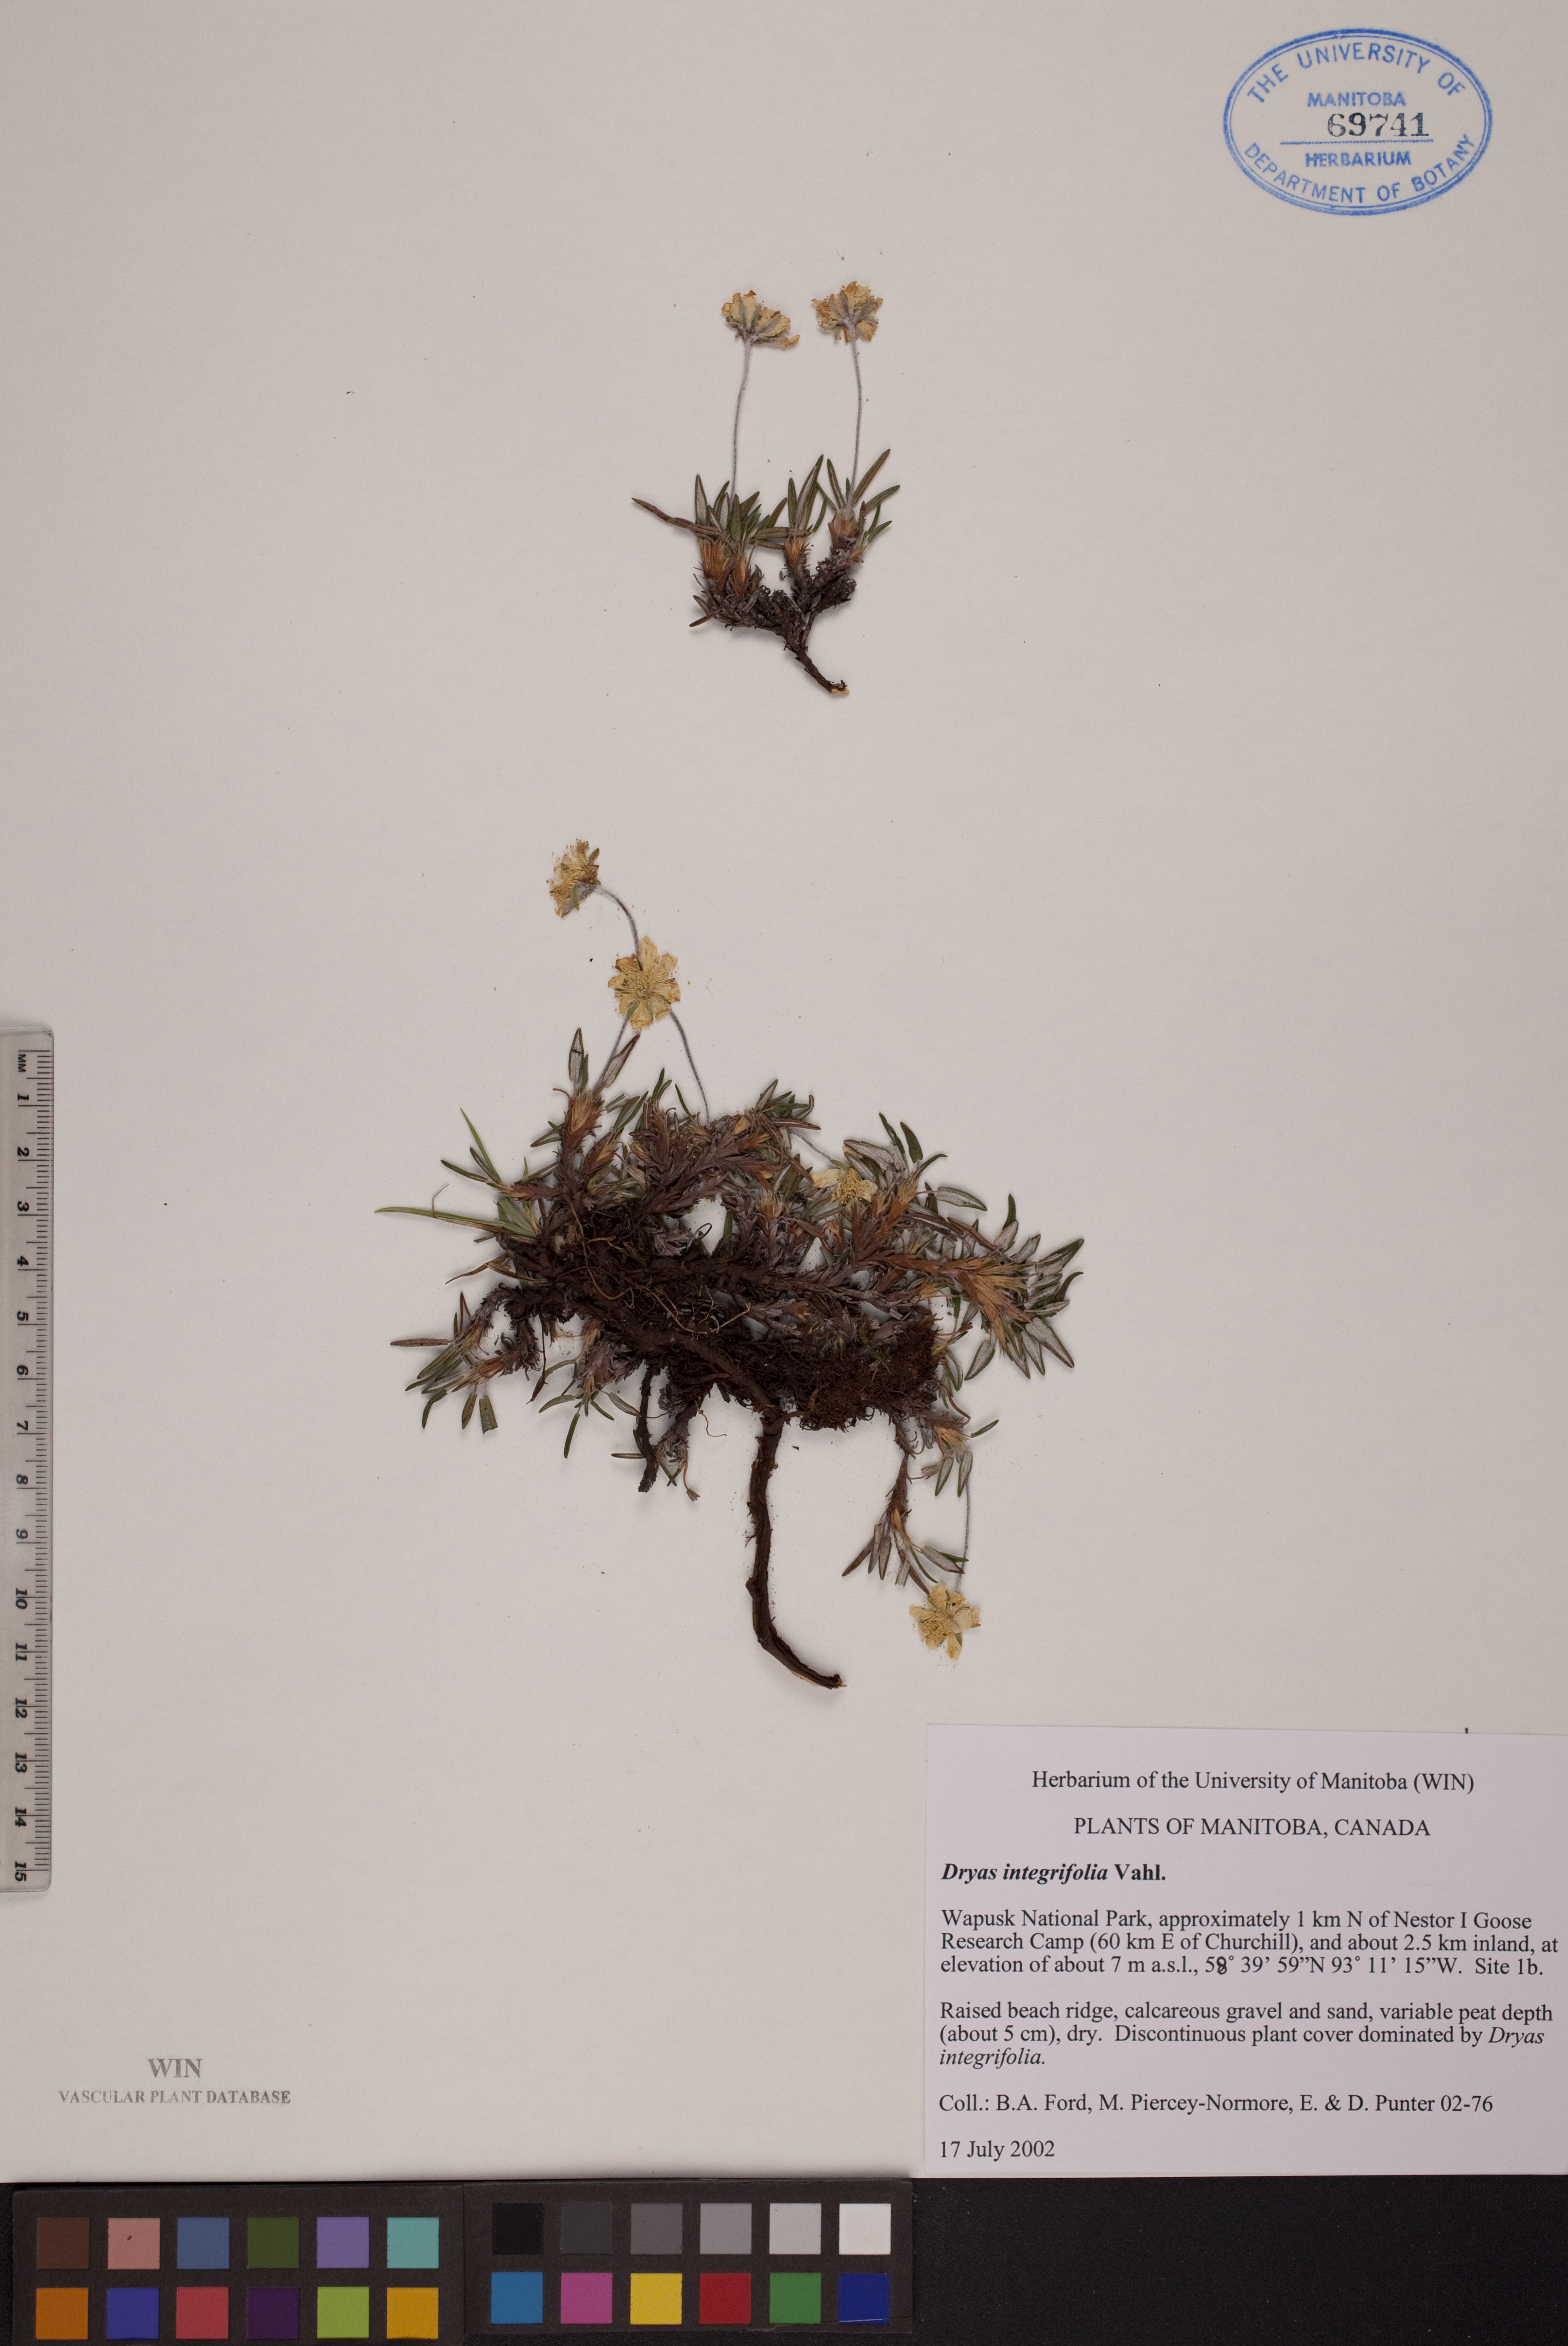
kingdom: Plantae
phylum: Tracheophyta
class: Magnoliopsida
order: Rosales
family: Rosaceae
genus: Dryas
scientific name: Dryas integrifolia
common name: Entire-leaved mountain avens
